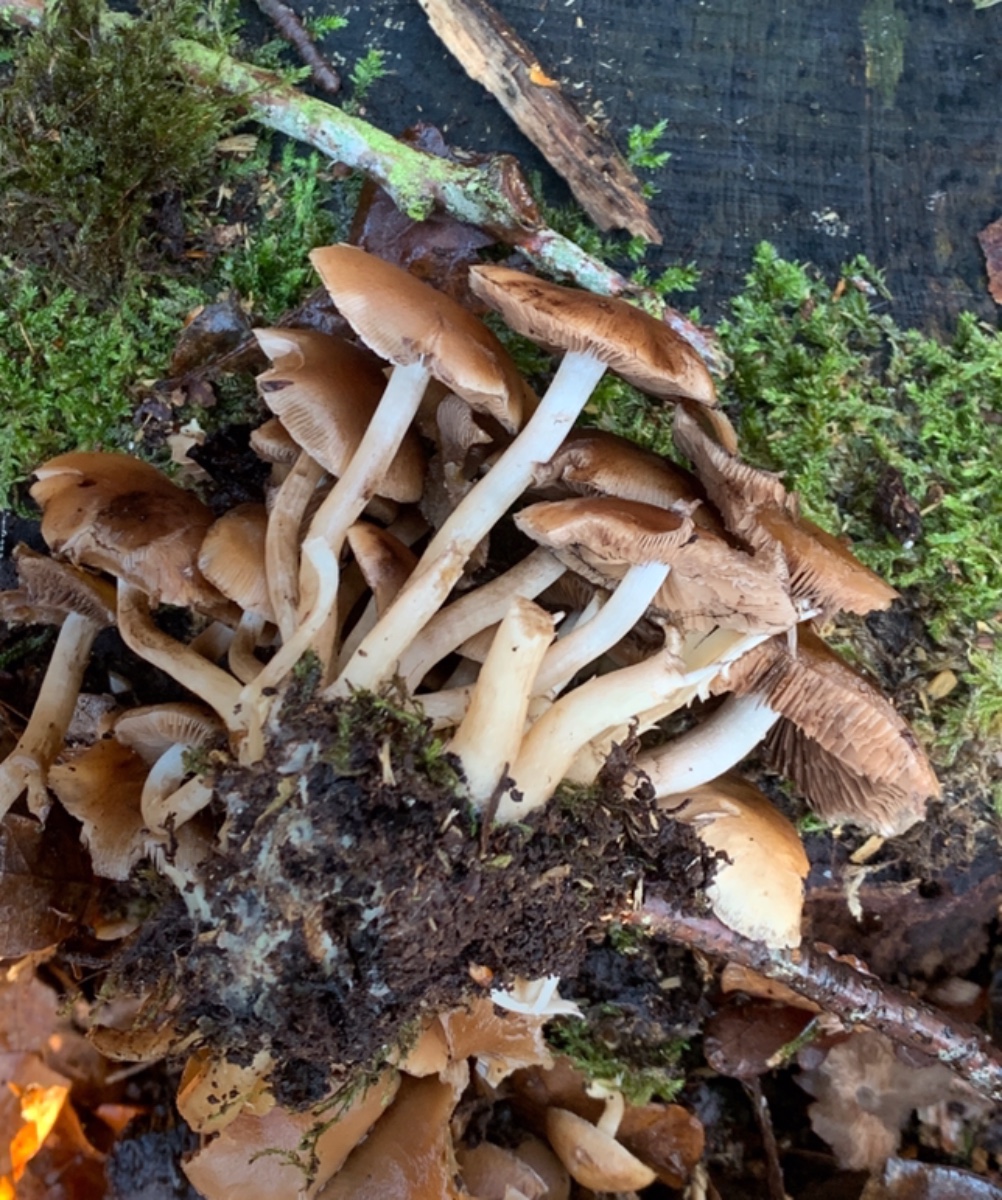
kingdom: Fungi
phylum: Basidiomycota
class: Agaricomycetes
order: Agaricales
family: Psathyrellaceae
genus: Psathyrella
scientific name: Psathyrella piluliformis
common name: lysstokket mørkhat
